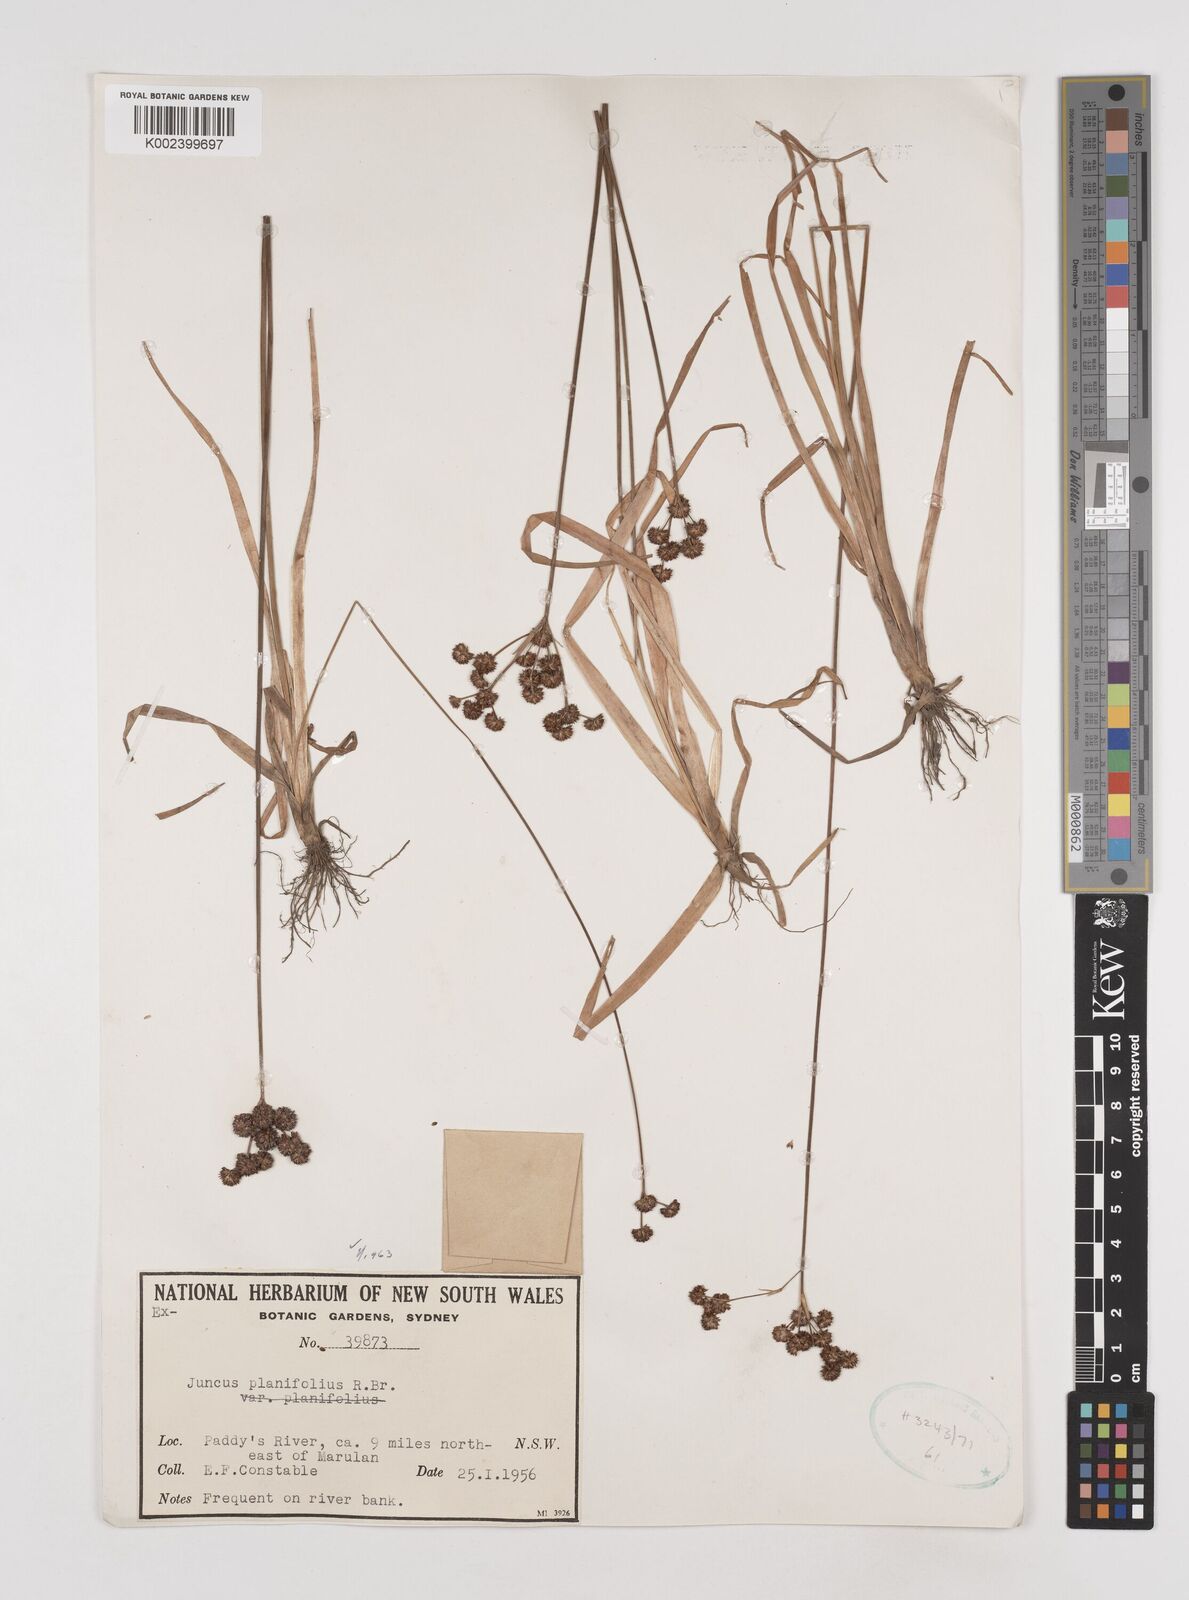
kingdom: Plantae
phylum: Tracheophyta
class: Liliopsida
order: Poales
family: Juncaceae
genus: Juncus
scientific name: Juncus planifolius
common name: Broadleaf rush
